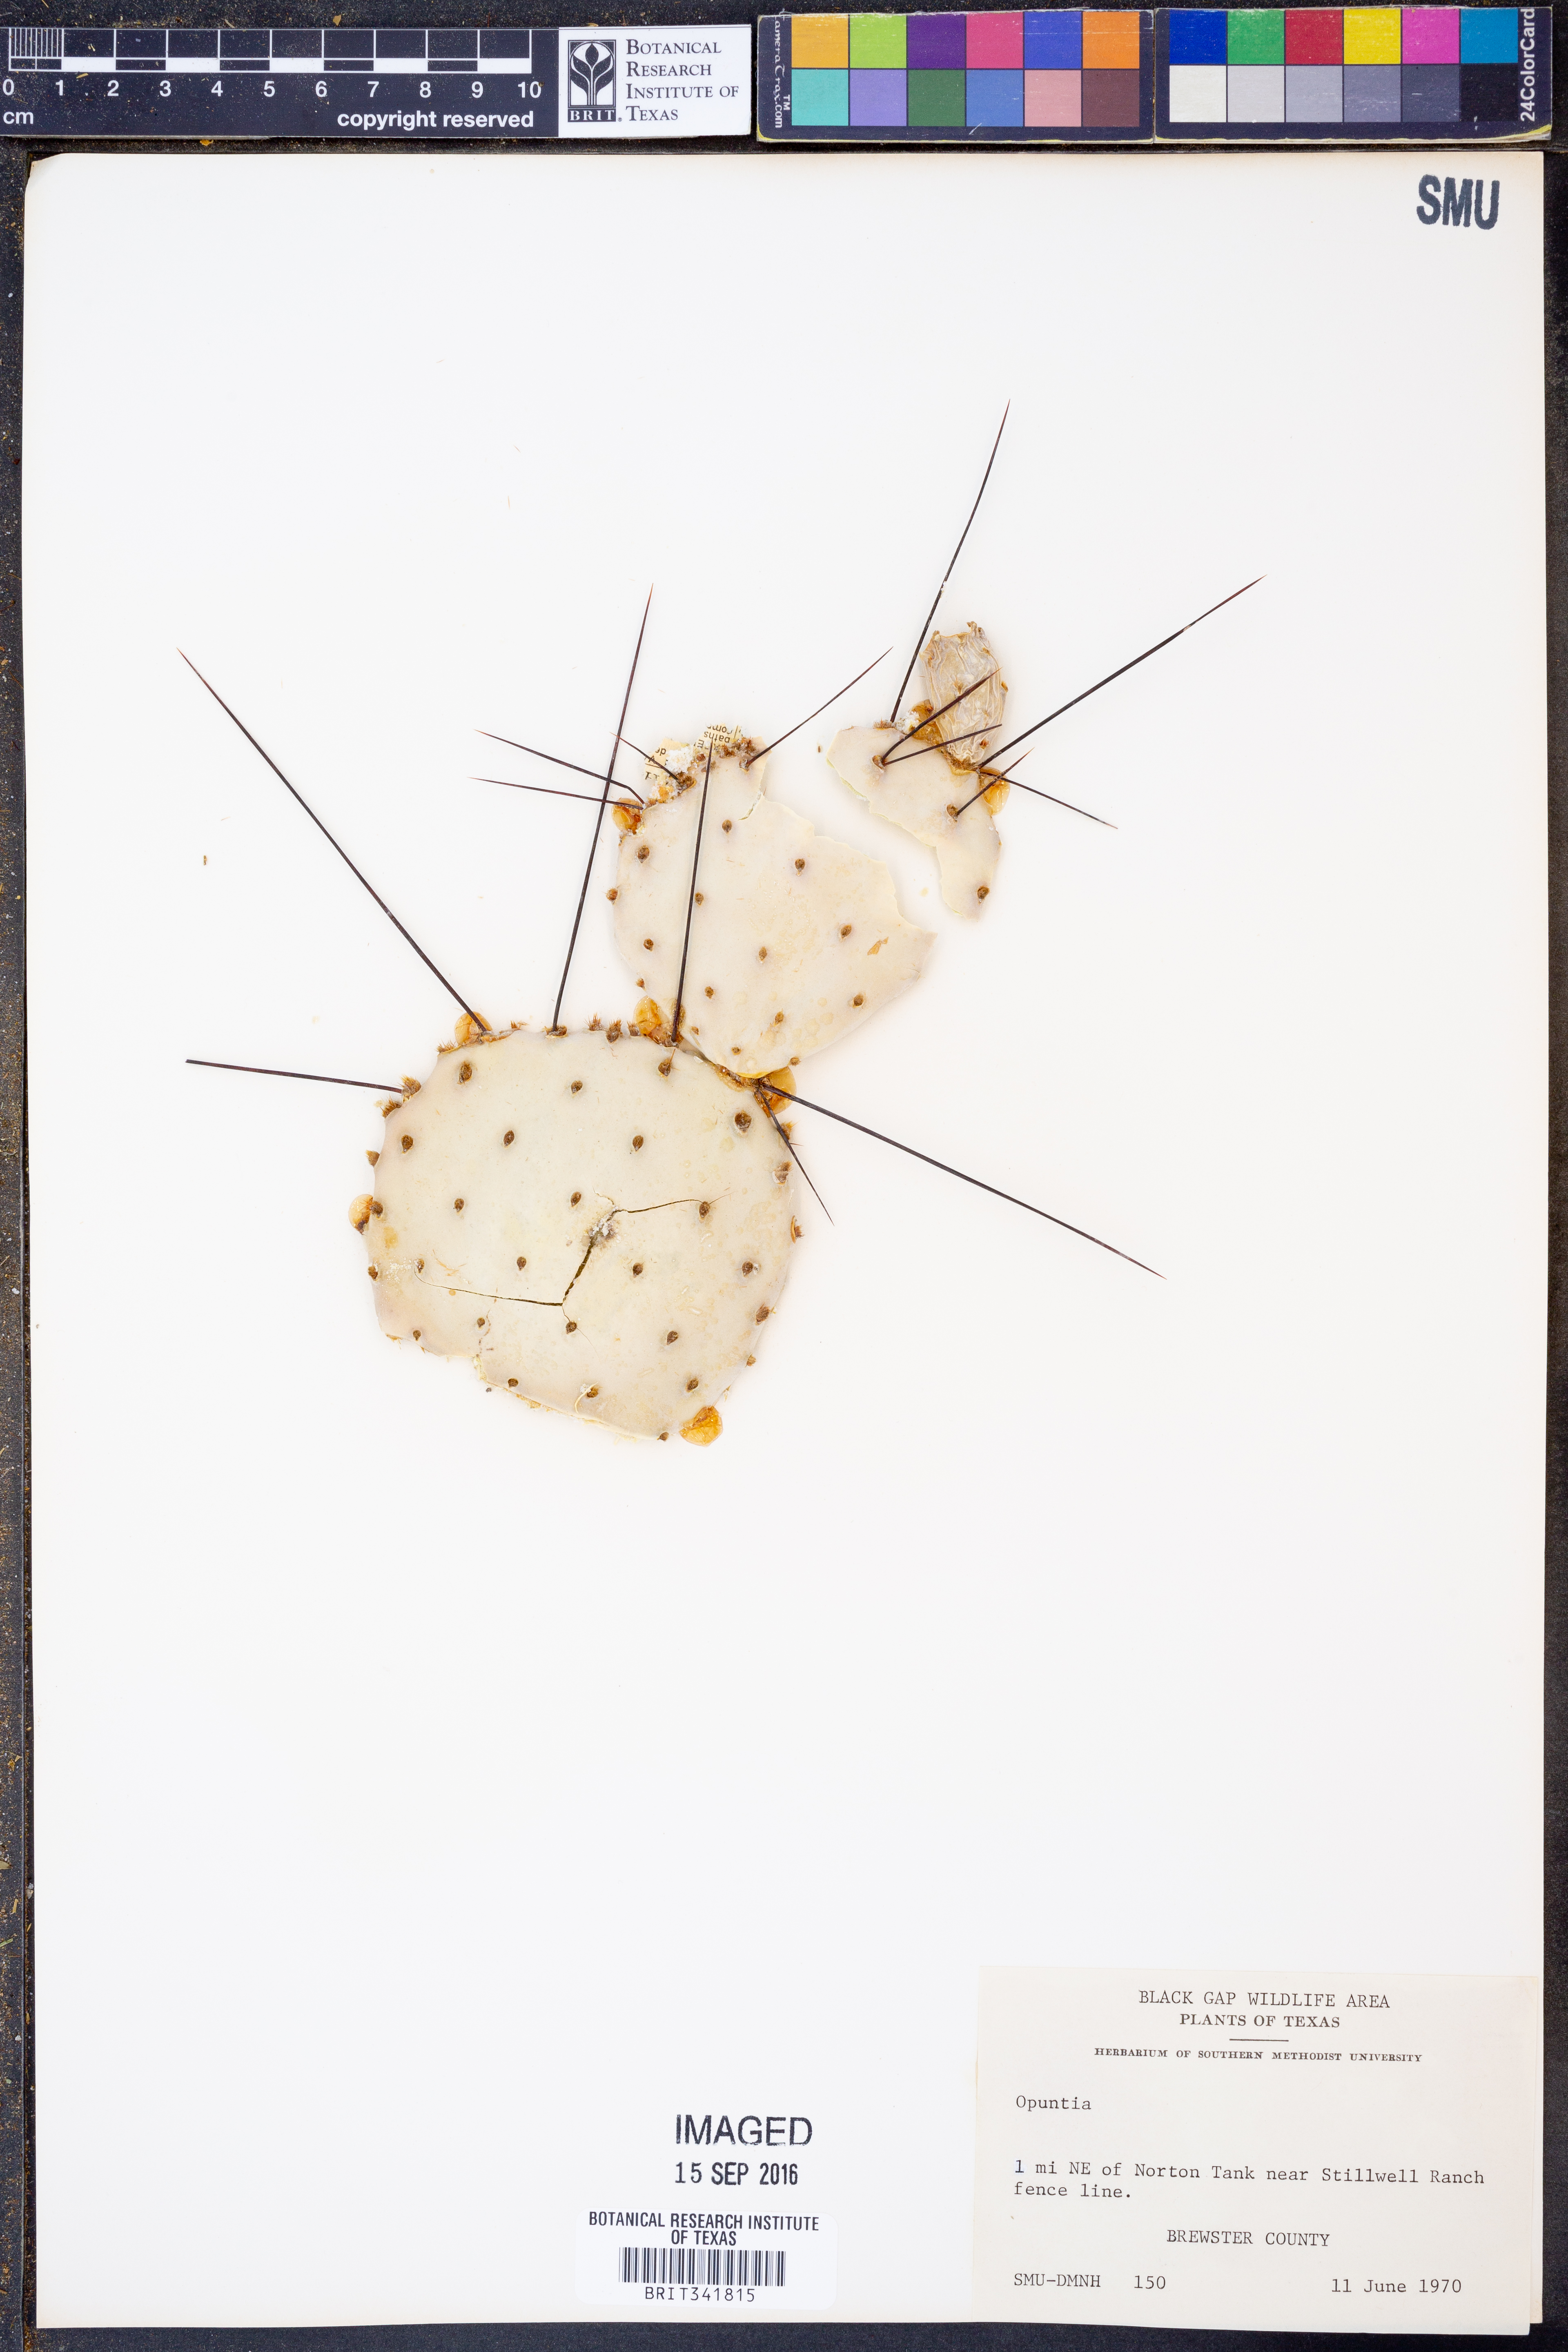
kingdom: Plantae
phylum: Tracheophyta
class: Magnoliopsida
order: Caryophyllales
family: Cactaceae
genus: Opuntia
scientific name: Opuntia
